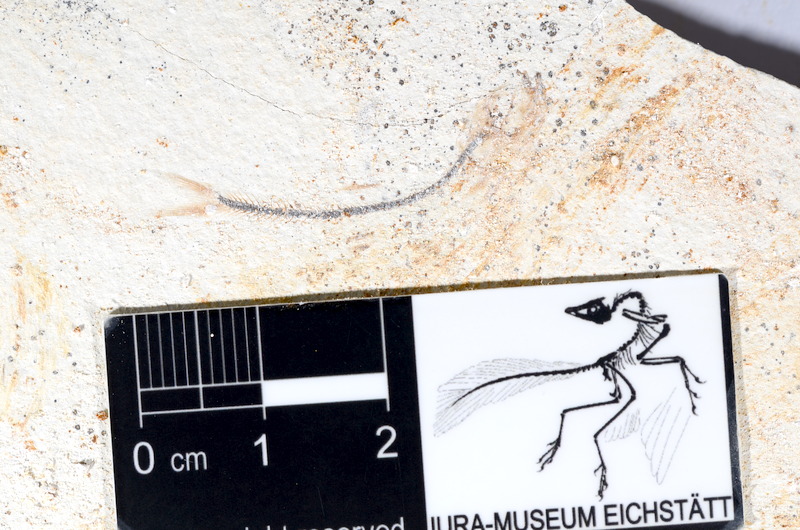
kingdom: Animalia
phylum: Chordata
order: Salmoniformes
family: Orthogonikleithridae
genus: Orthogonikleithrus
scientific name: Orthogonikleithrus hoelli
